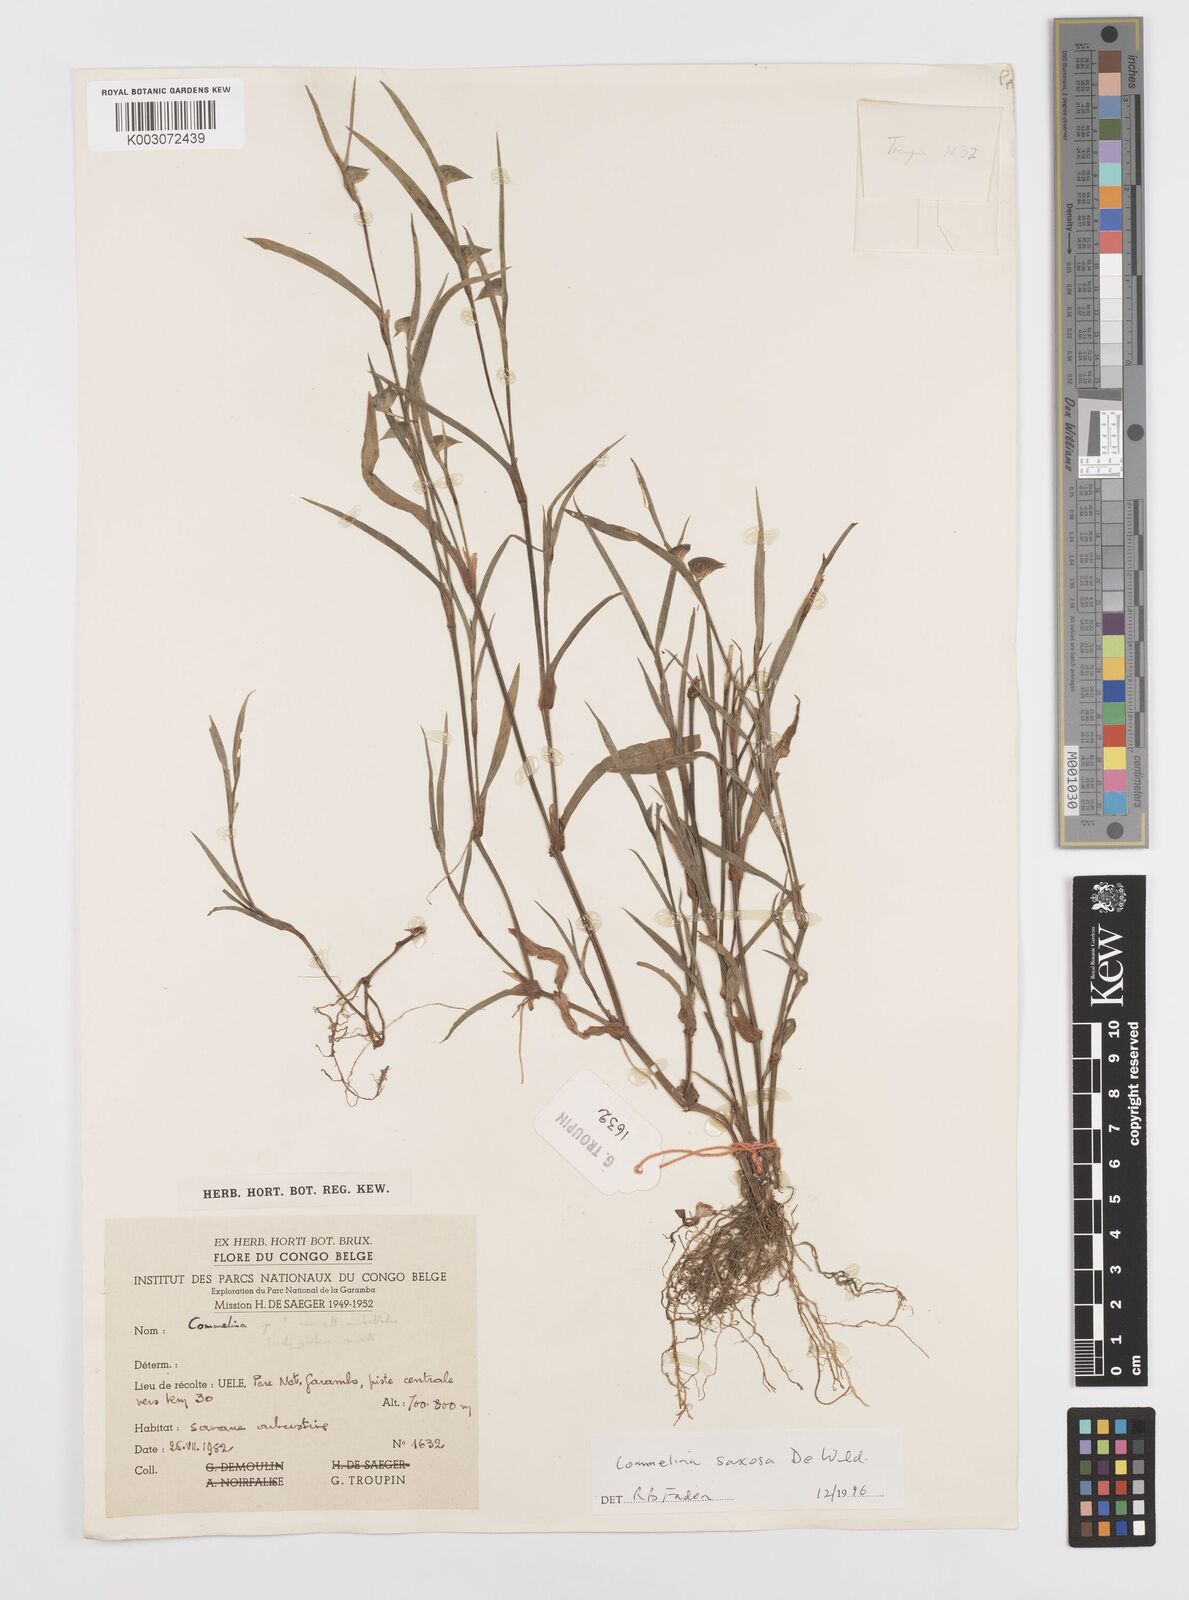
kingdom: Plantae
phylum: Tracheophyta
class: Liliopsida
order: Commelinales
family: Commelinaceae
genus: Commelina
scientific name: Commelina saxosa
